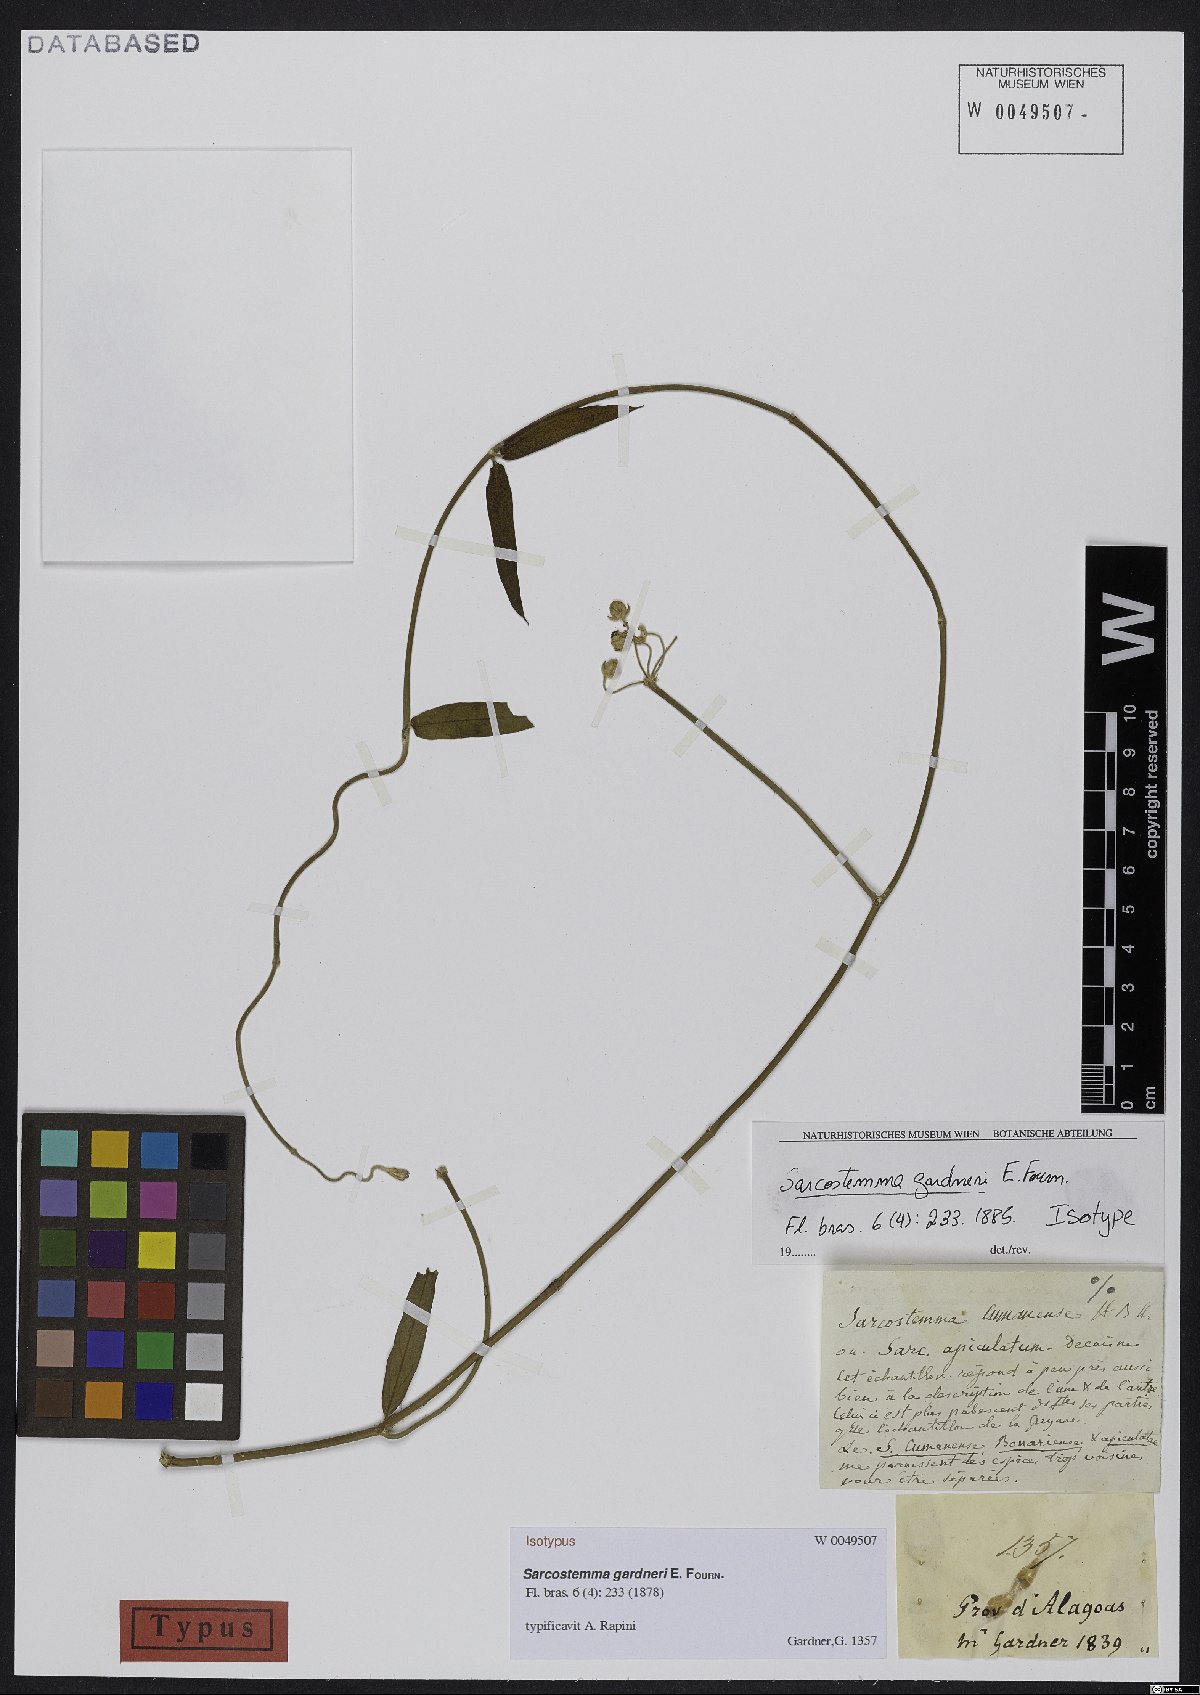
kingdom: Plantae
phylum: Tracheophyta
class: Magnoliopsida
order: Gentianales
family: Apocynaceae
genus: Funastrum
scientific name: Funastrum clausum
